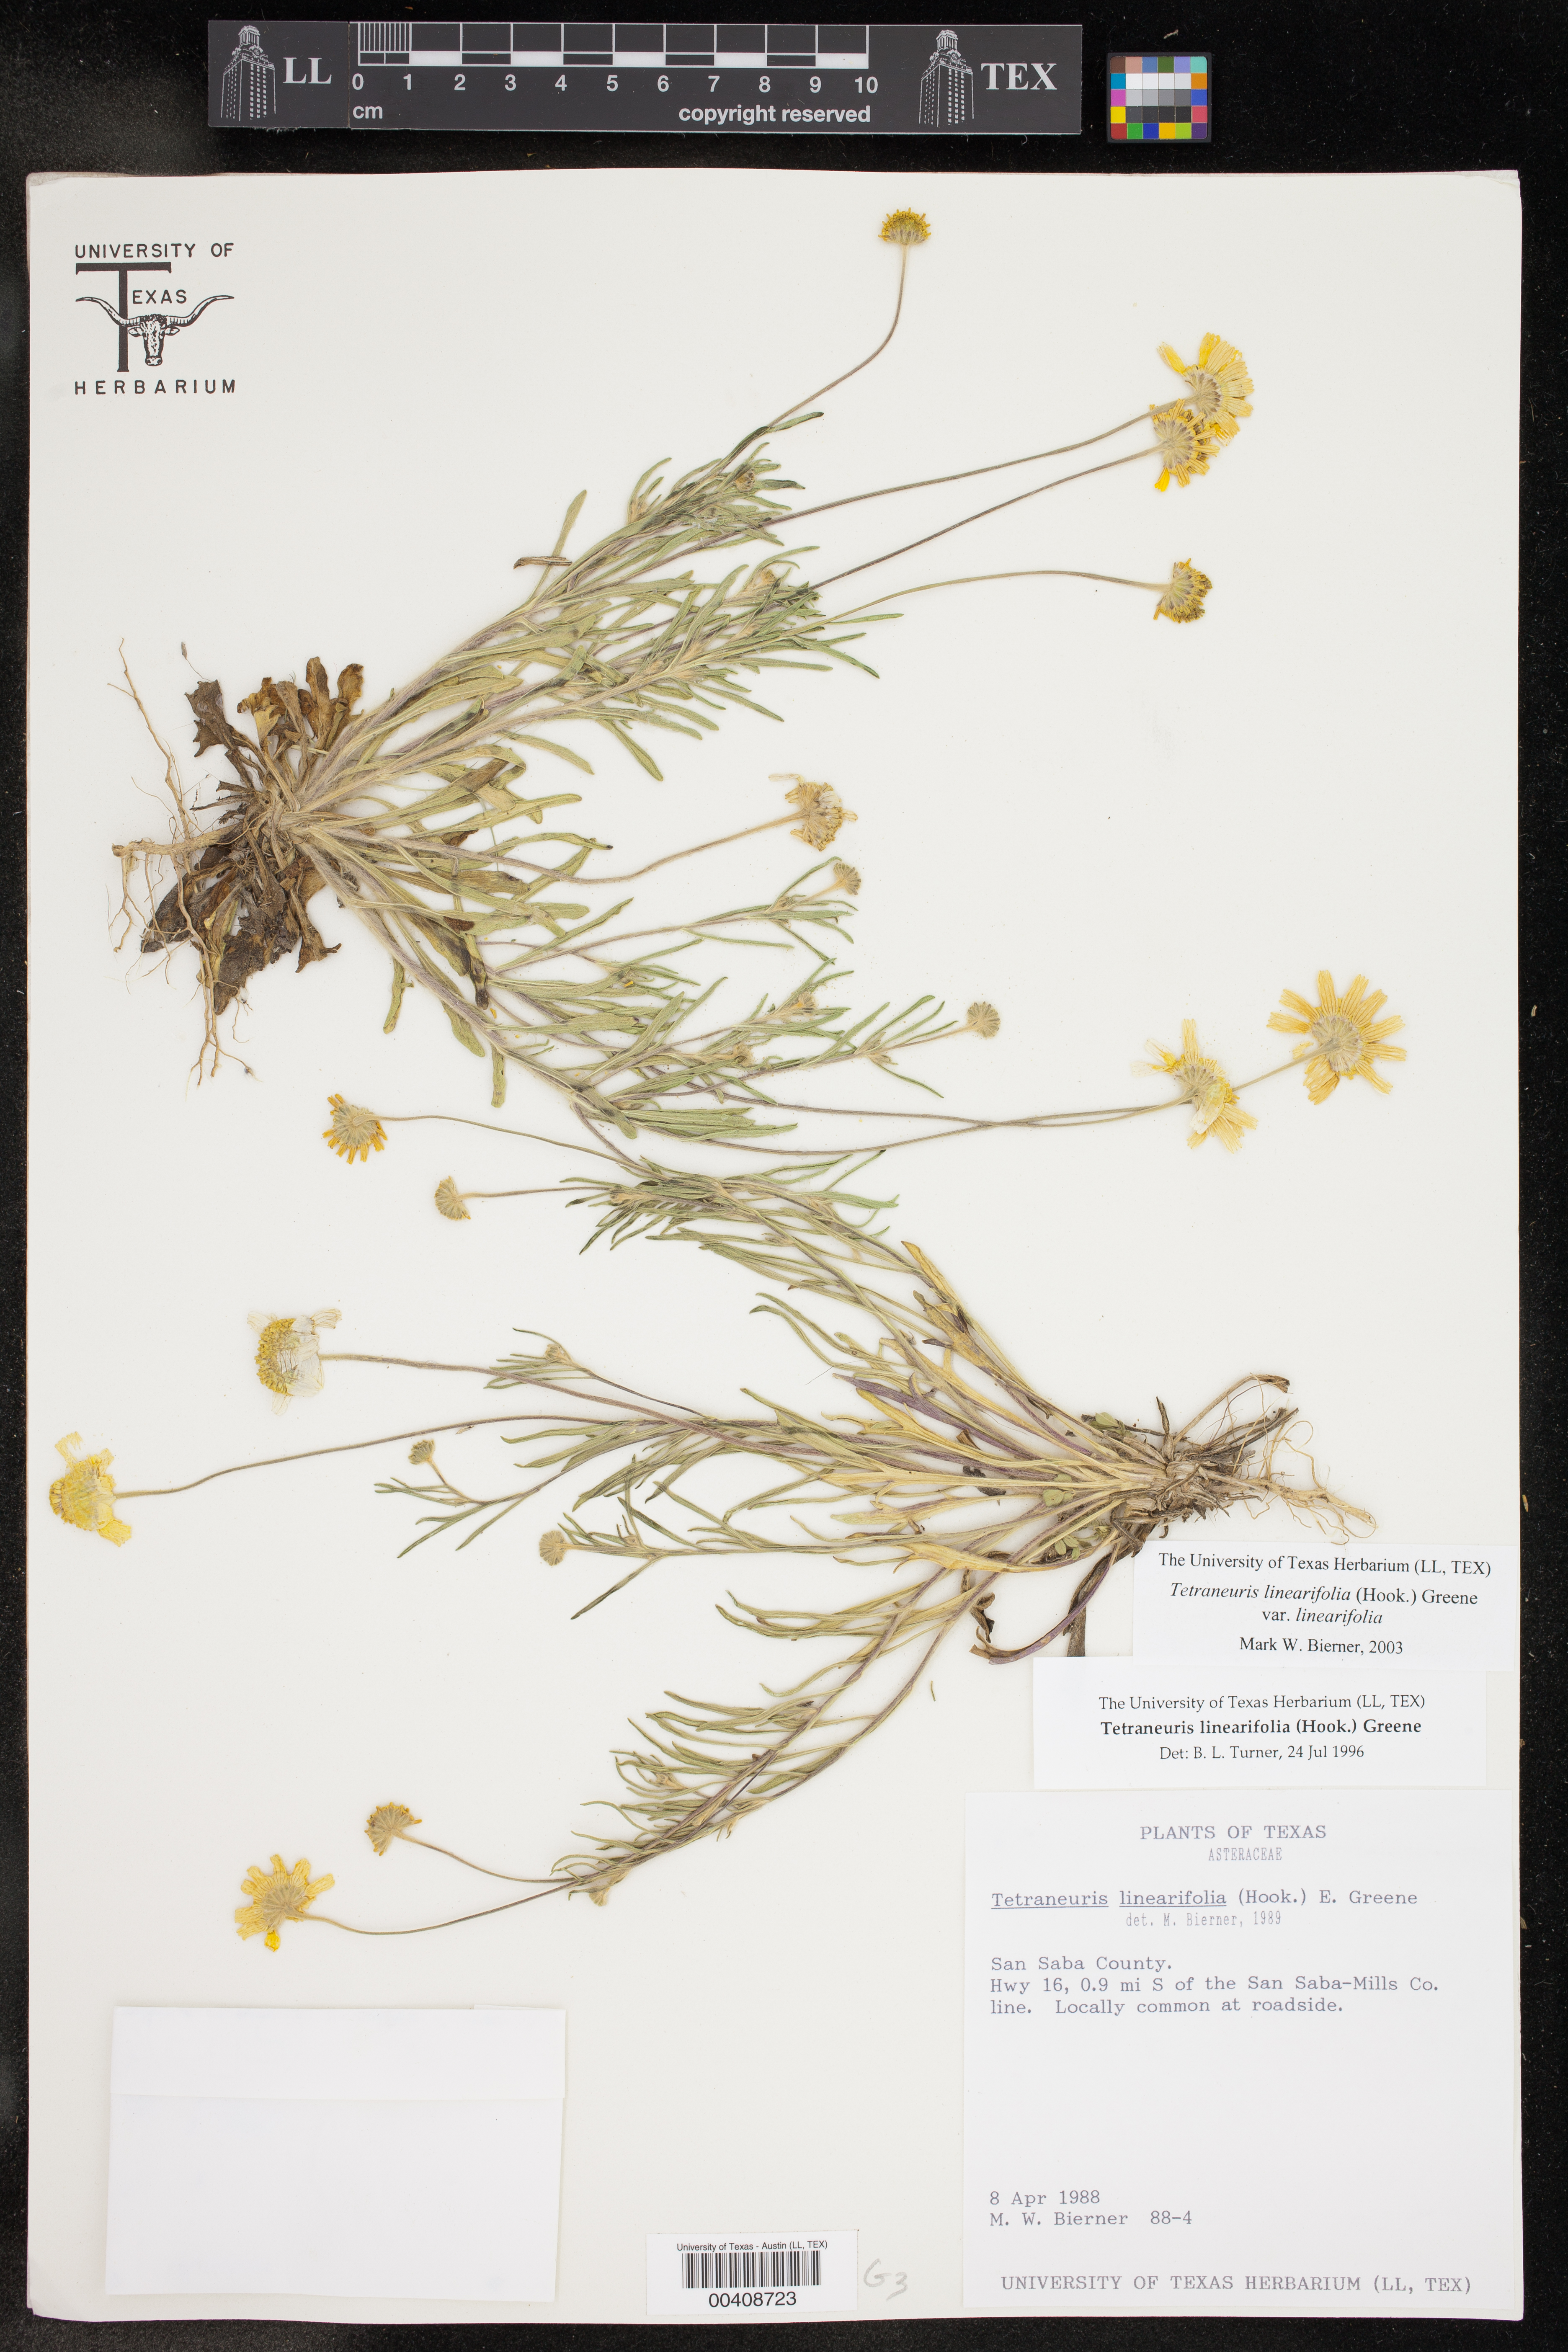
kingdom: Plantae
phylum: Tracheophyta
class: Magnoliopsida
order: Asterales
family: Asteraceae
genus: Tetraneuris
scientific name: Tetraneuris linearifolia
